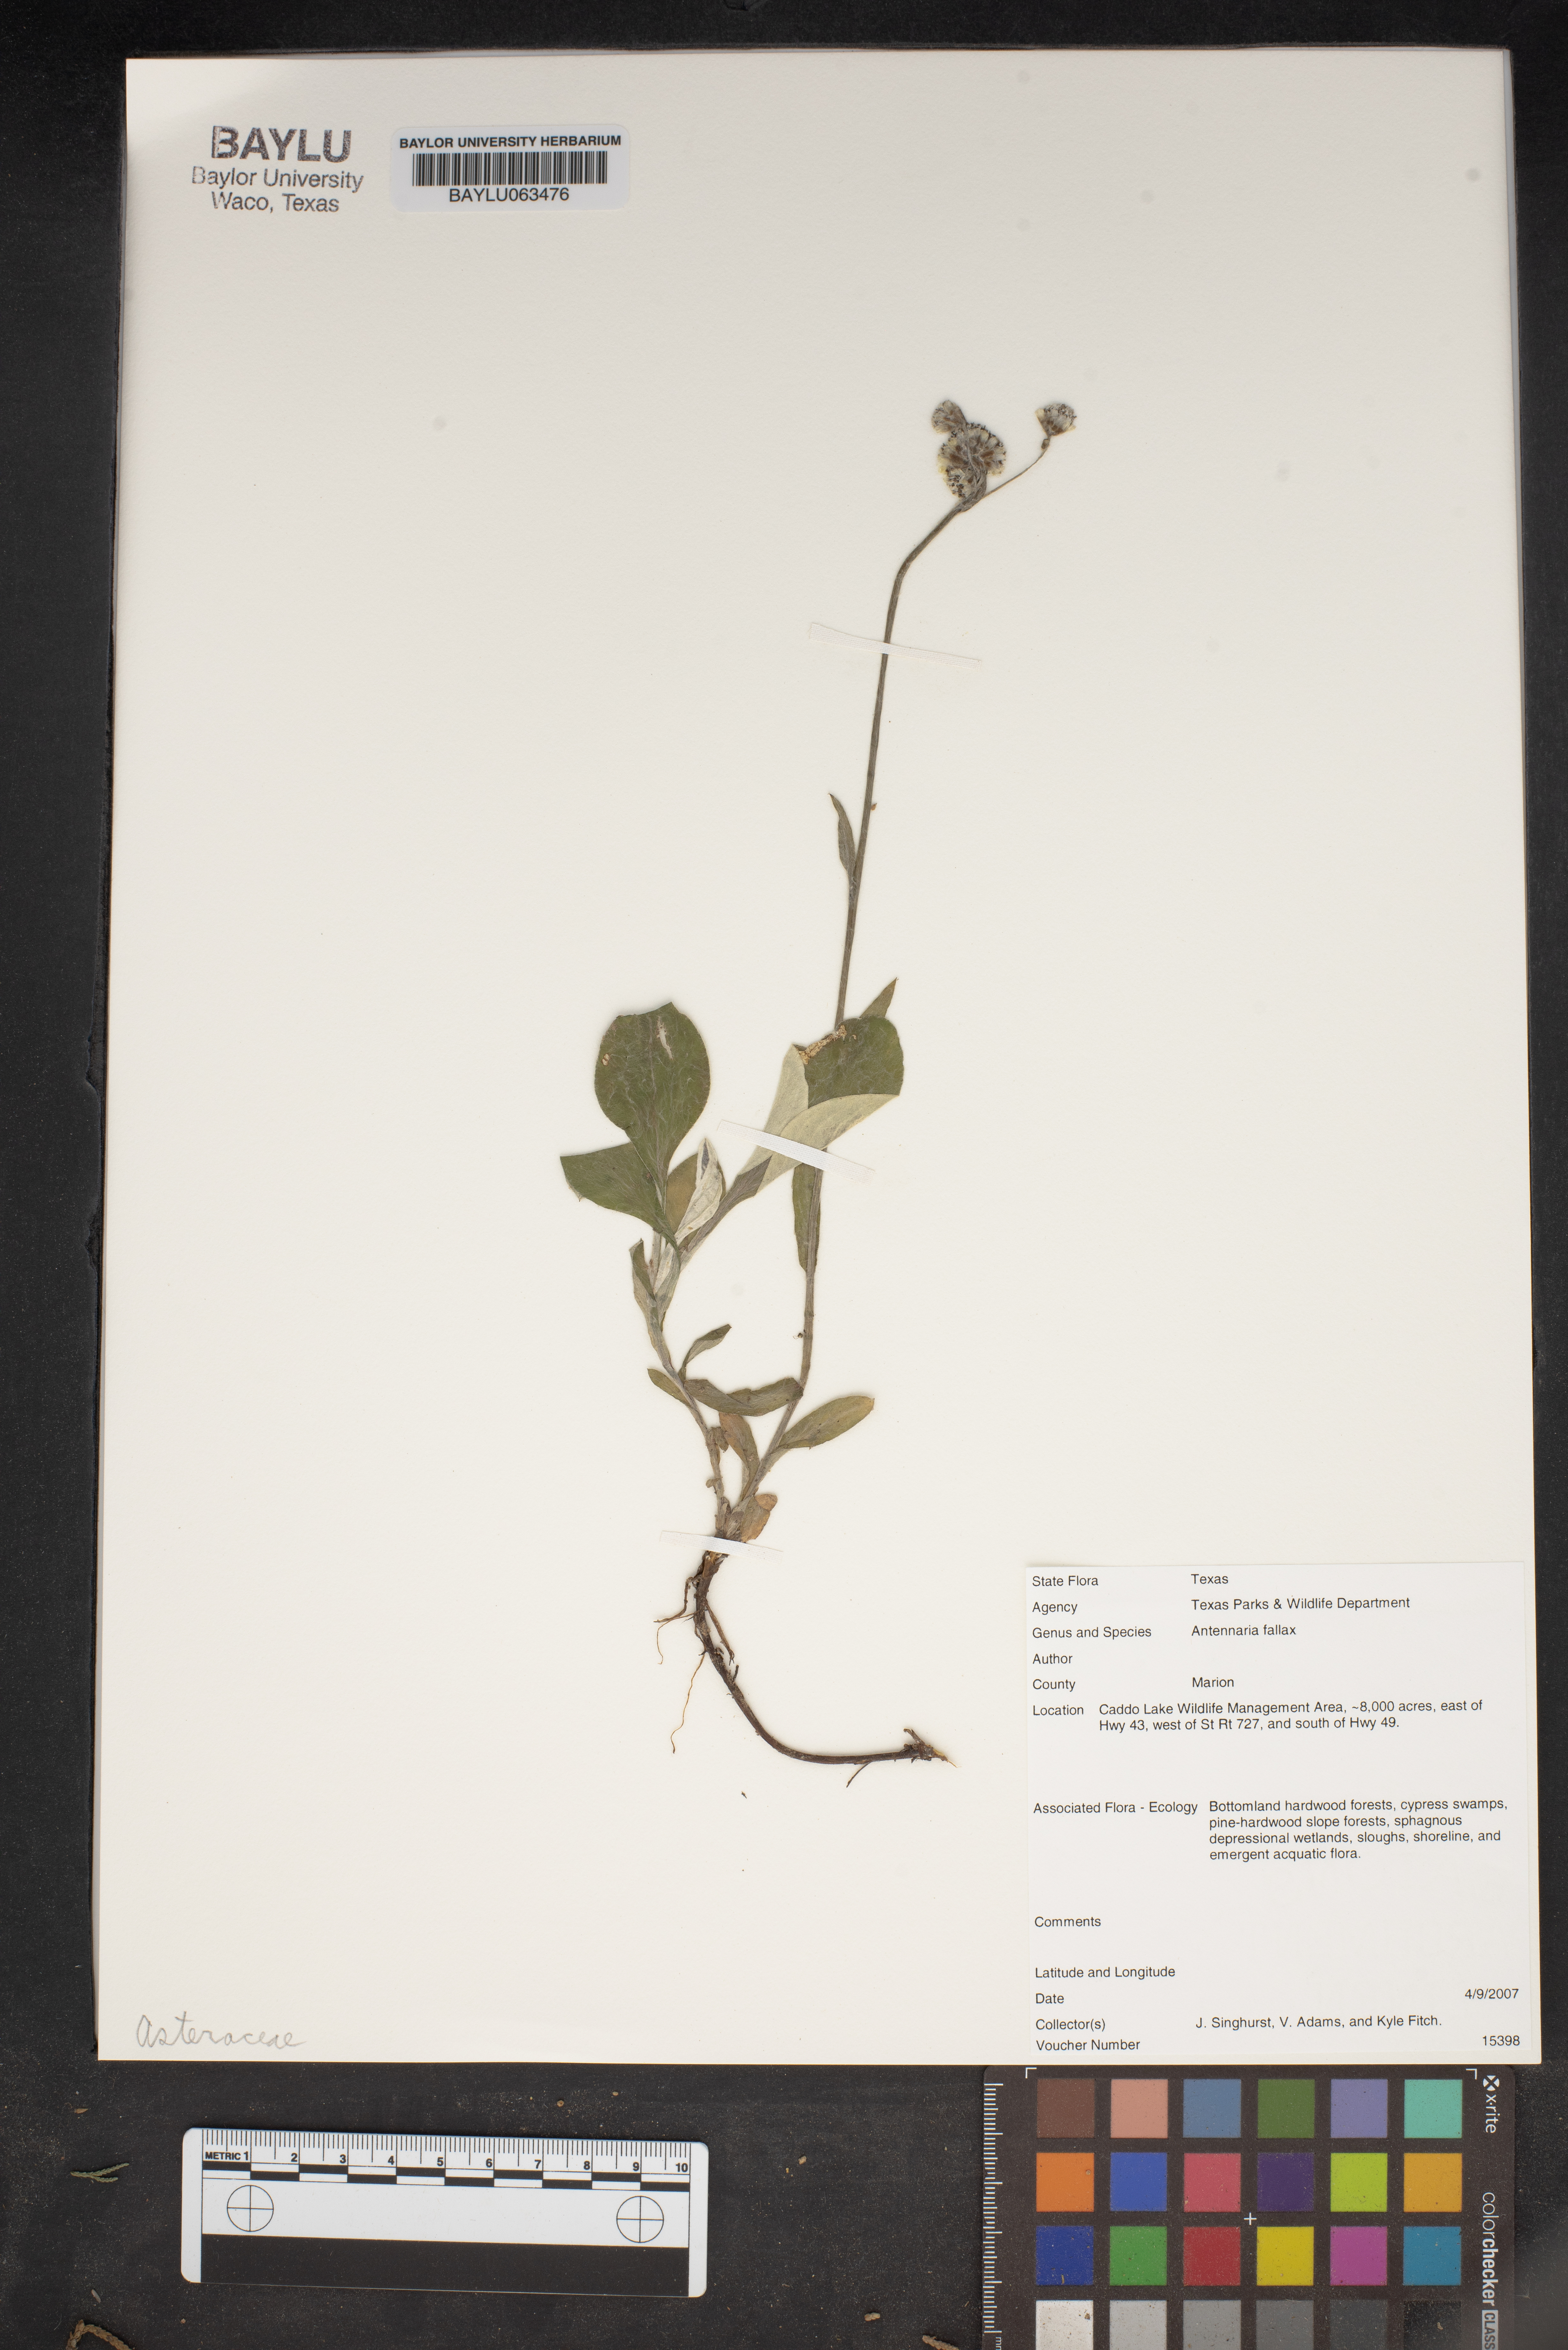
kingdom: Plantae
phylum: Tracheophyta
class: Magnoliopsida
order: Asterales
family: Asteraceae
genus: Antennaria
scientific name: Antennaria parlinii
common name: Parlin's pussytoes
